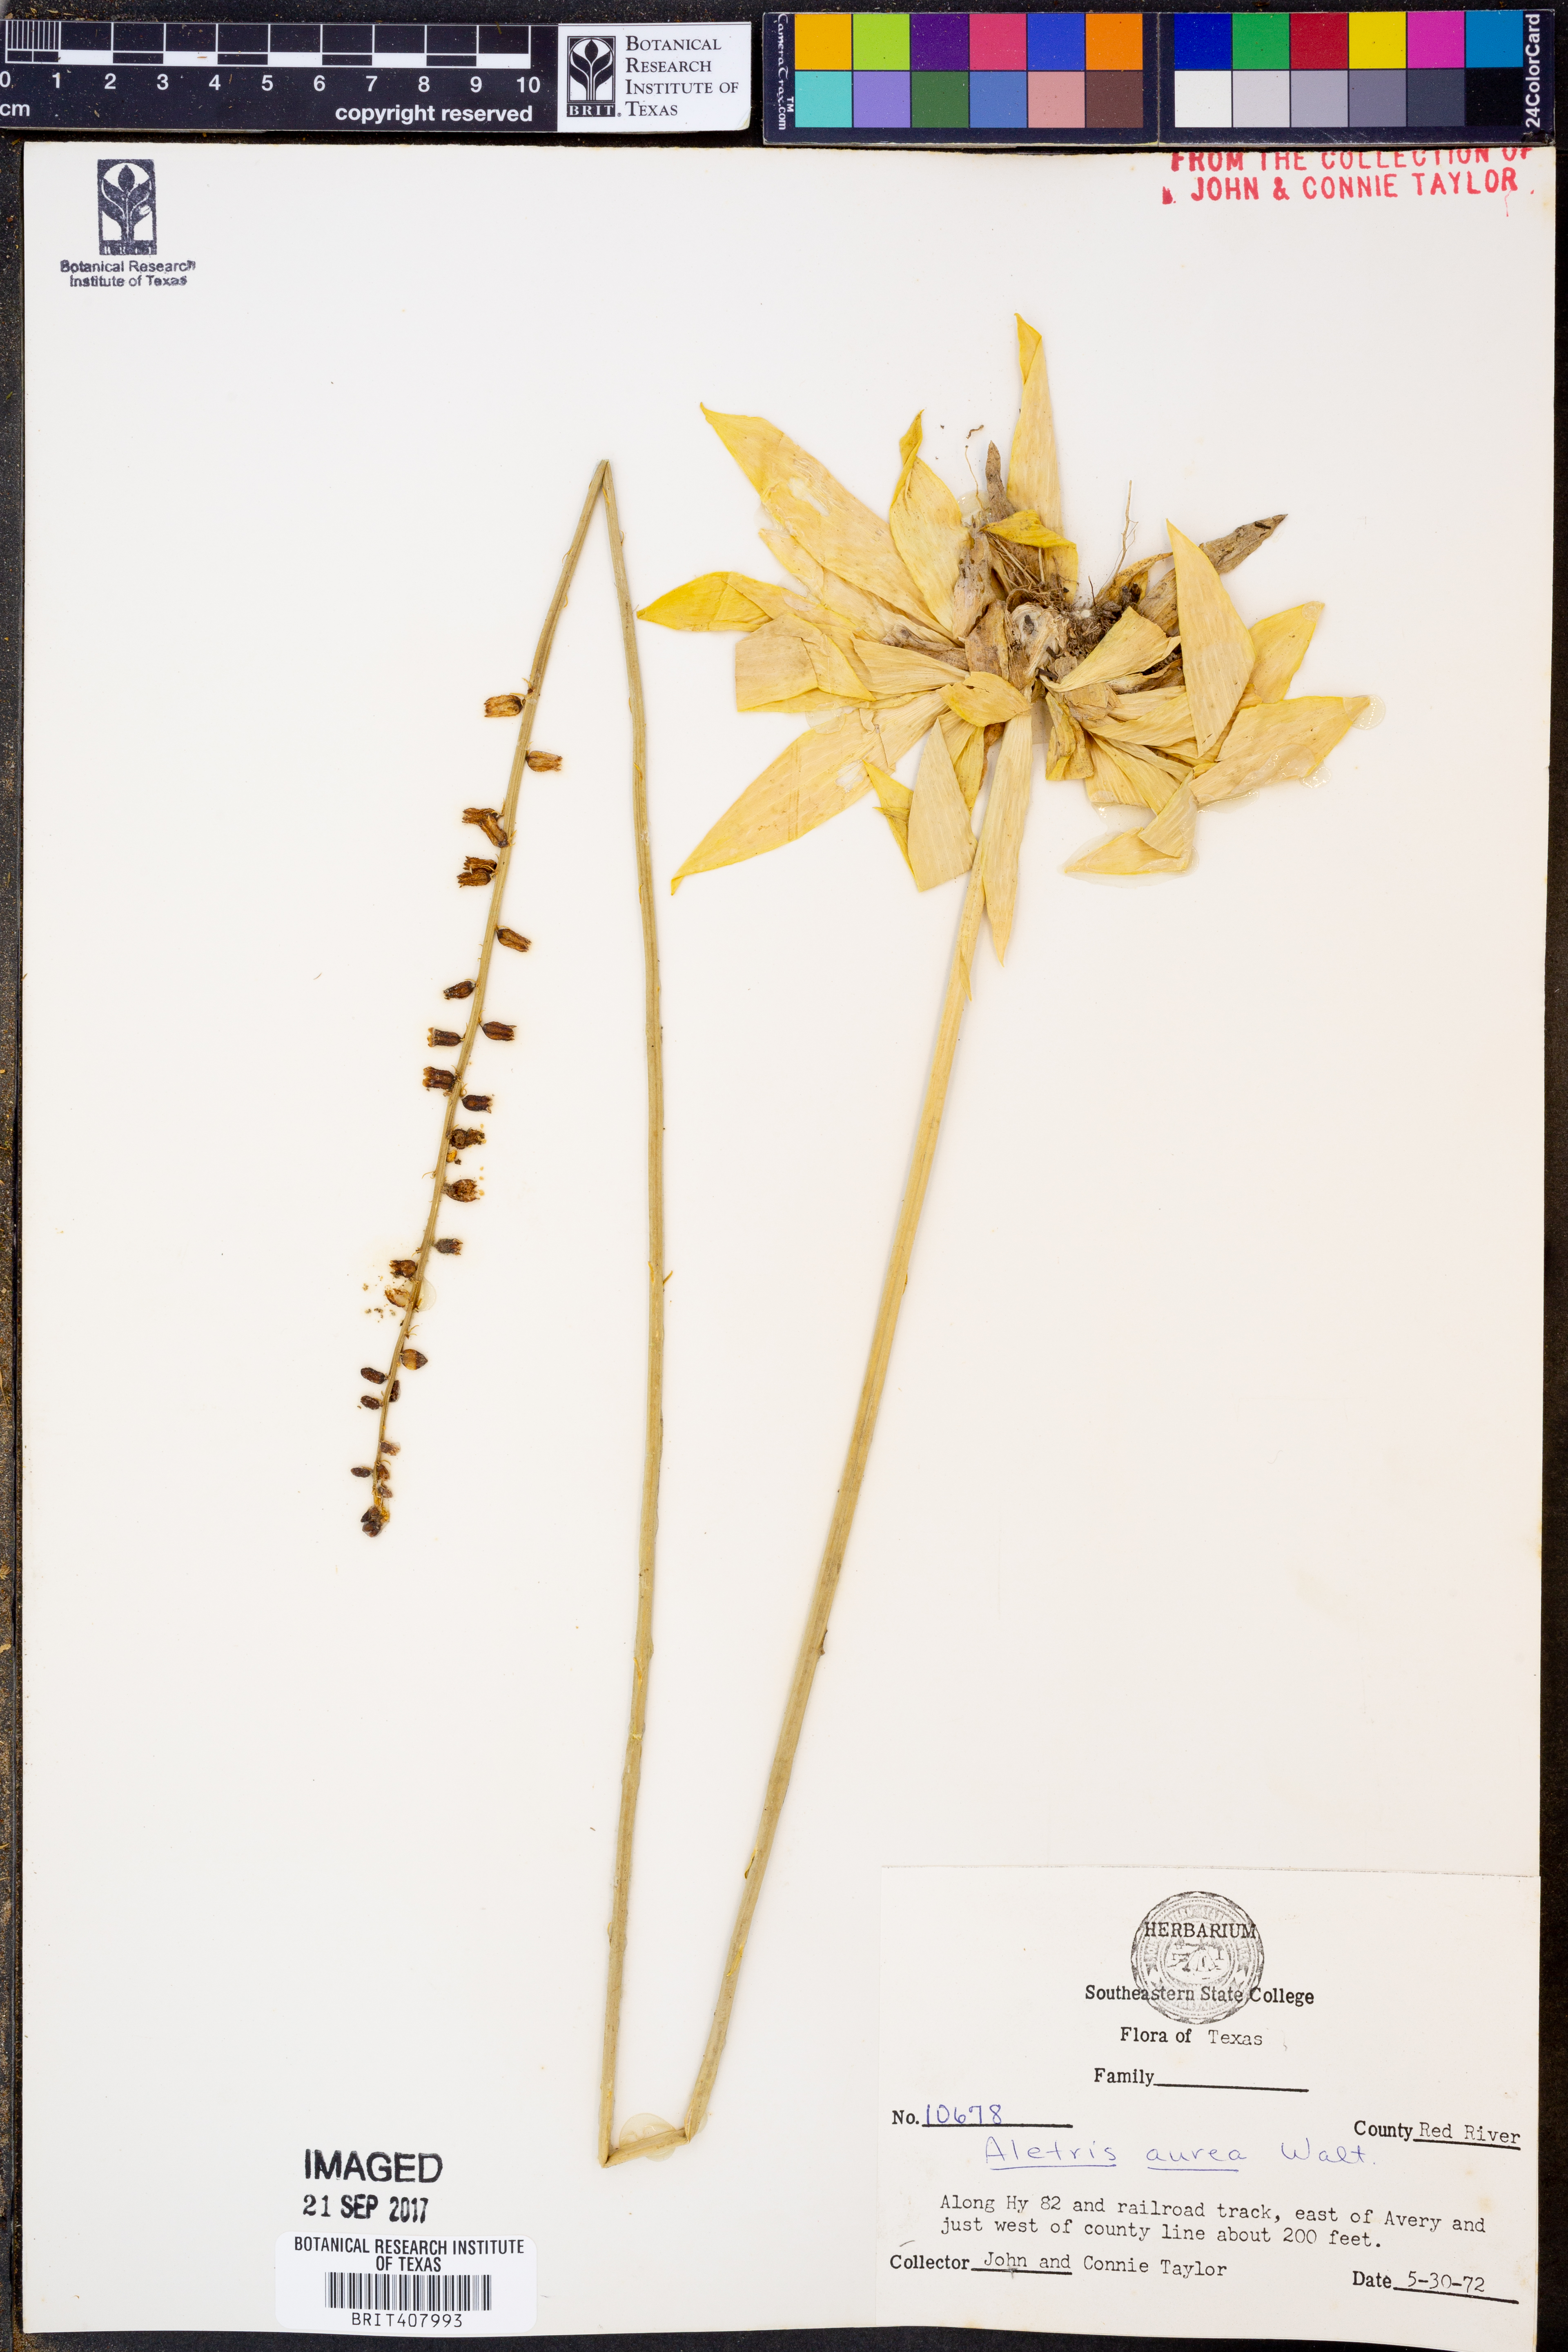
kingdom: Plantae
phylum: Tracheophyta
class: Liliopsida
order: Dioscoreales
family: Nartheciaceae
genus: Aletris
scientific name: Aletris aurea
